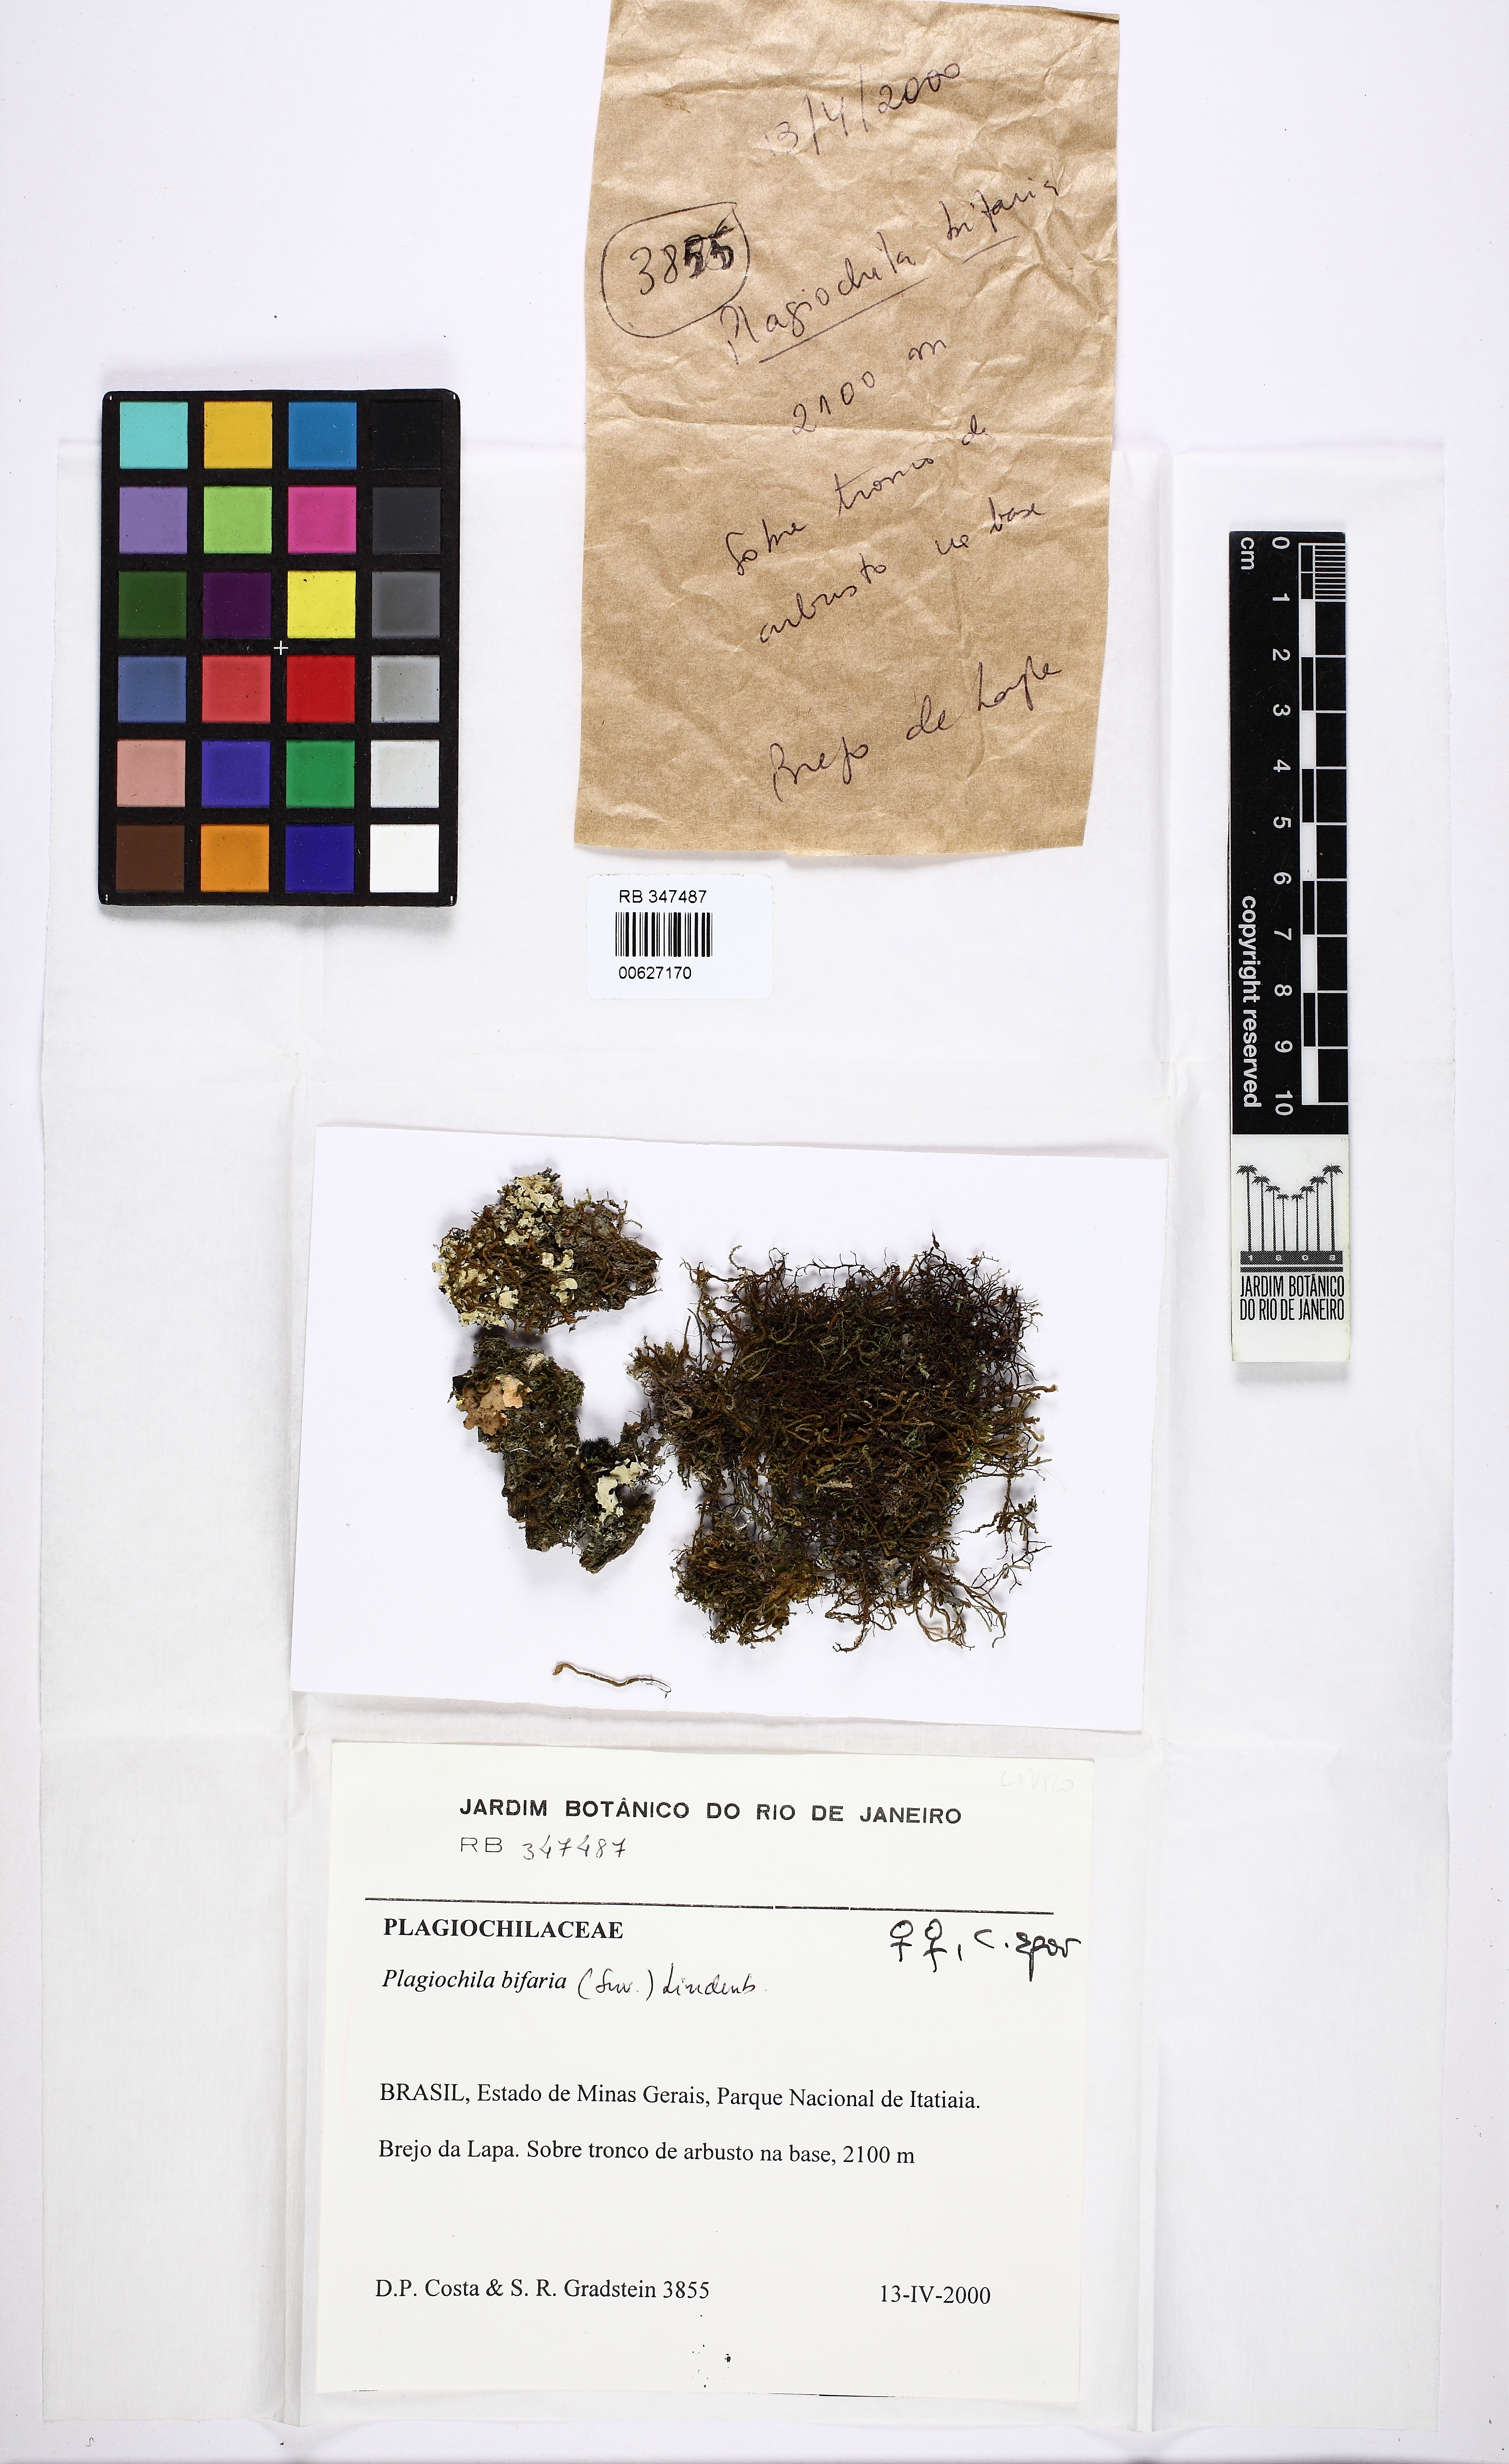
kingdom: Plantae
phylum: Marchantiophyta
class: Jungermanniopsida
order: Jungermanniales
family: Plagiochilaceae
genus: Plagiochila
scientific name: Plagiochila bifaria
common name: Killarney featherwort
